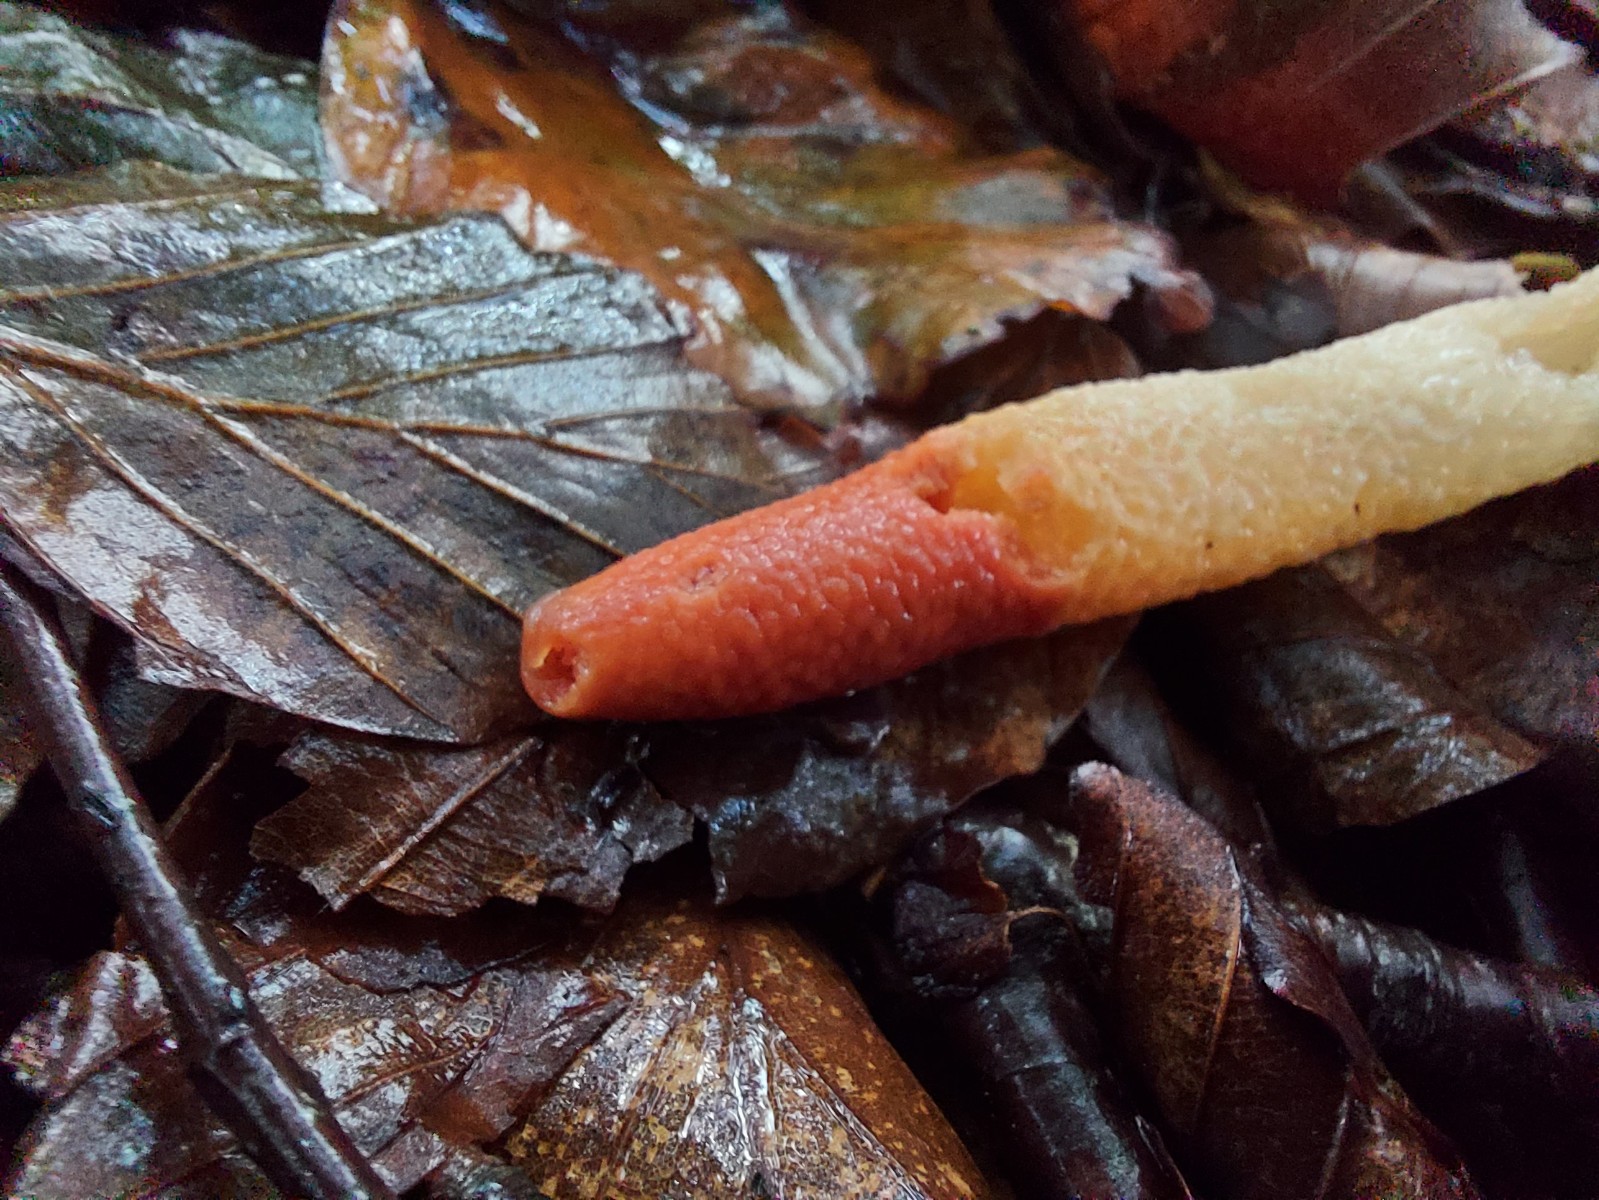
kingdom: Fungi
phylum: Basidiomycota
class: Agaricomycetes
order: Phallales
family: Phallaceae
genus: Mutinus
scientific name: Mutinus caninus
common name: hunde-stinksvamp
